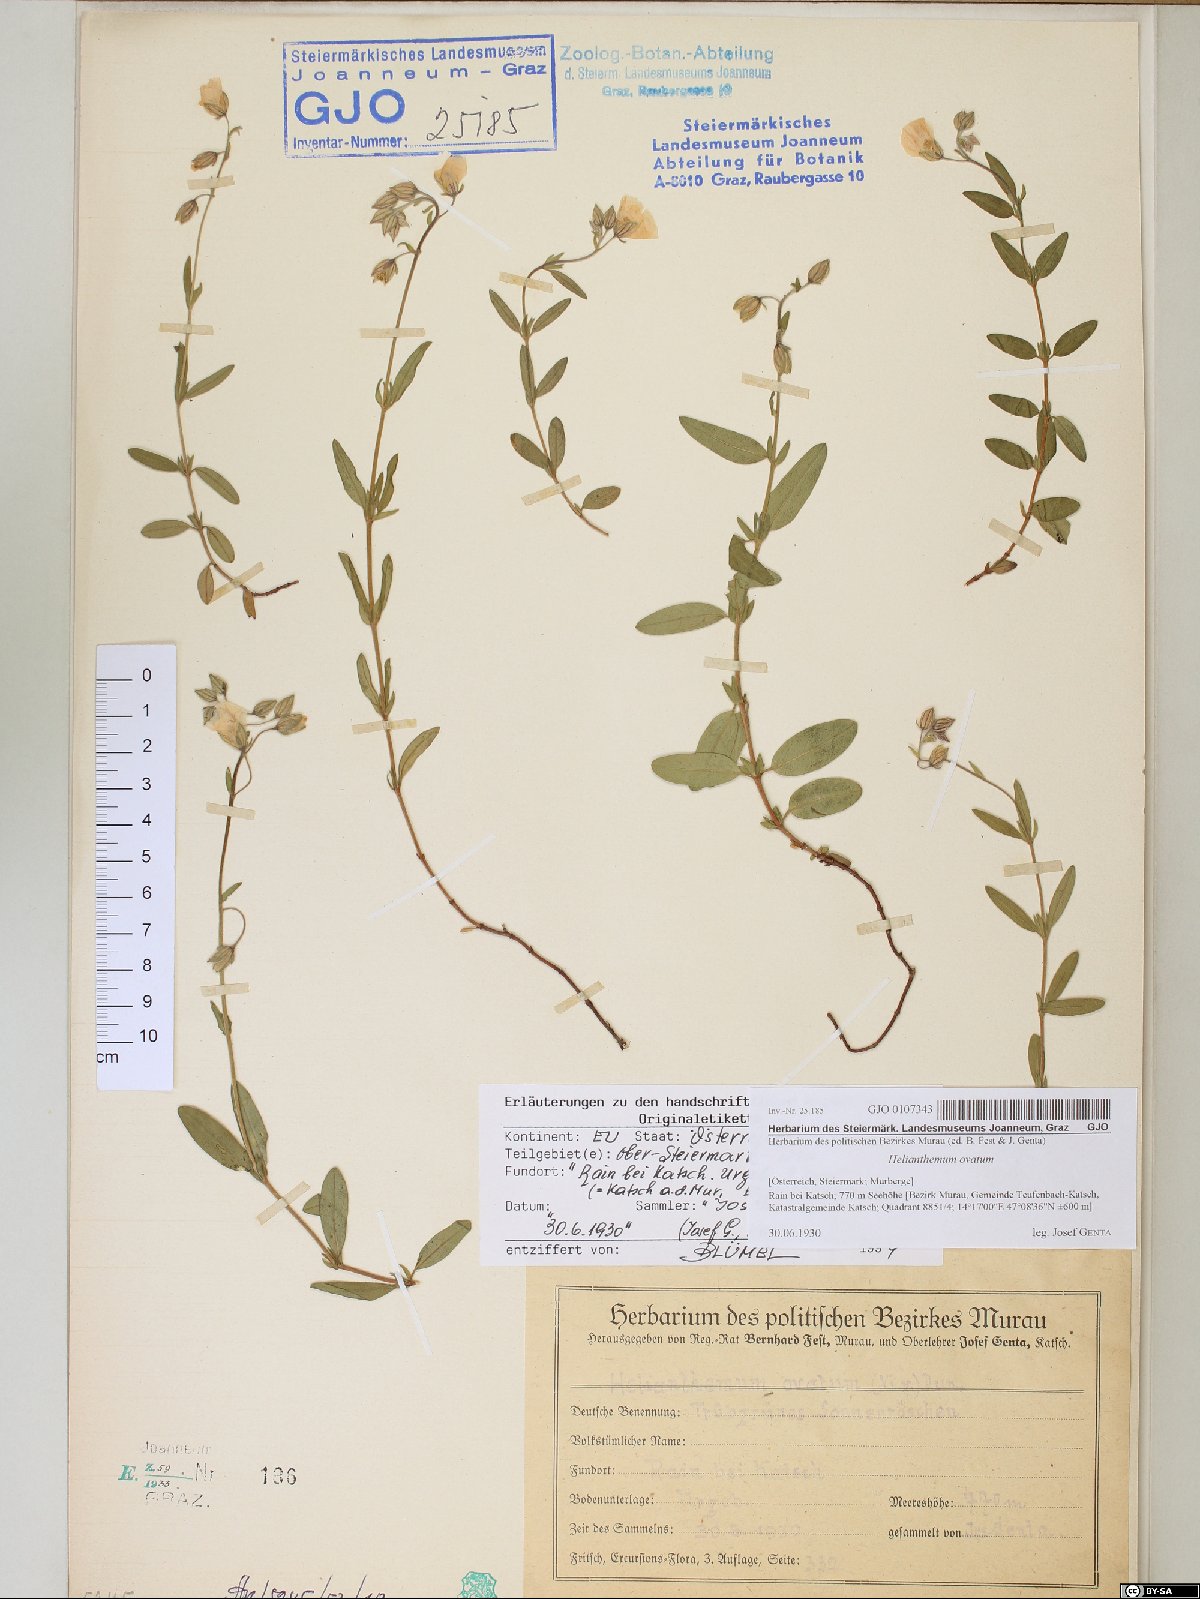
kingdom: Plantae
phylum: Tracheophyta
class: Magnoliopsida
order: Malvales
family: Cistaceae
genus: Helianthemum
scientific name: Helianthemum nummularium
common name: Common rock-rose
